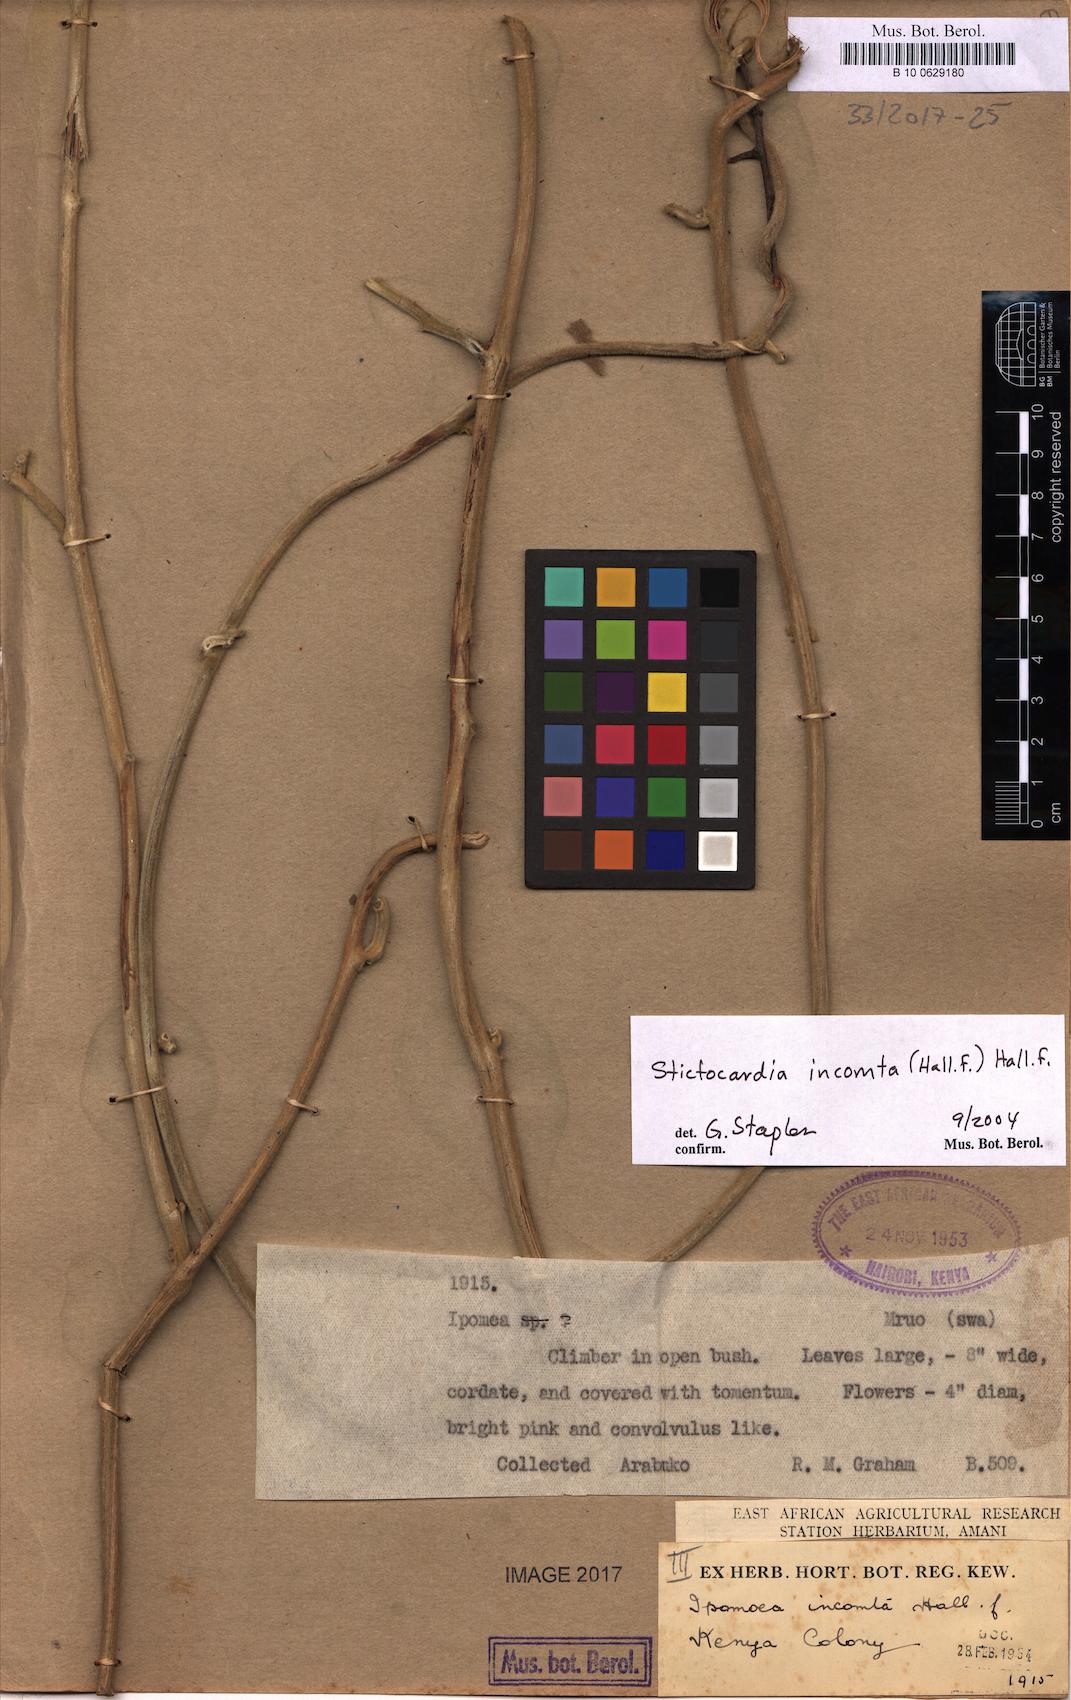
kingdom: Plantae
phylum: Tracheophyta
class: Magnoliopsida
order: Solanales
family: Convolvulaceae
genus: Stictocardia
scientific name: Stictocardia incomta
